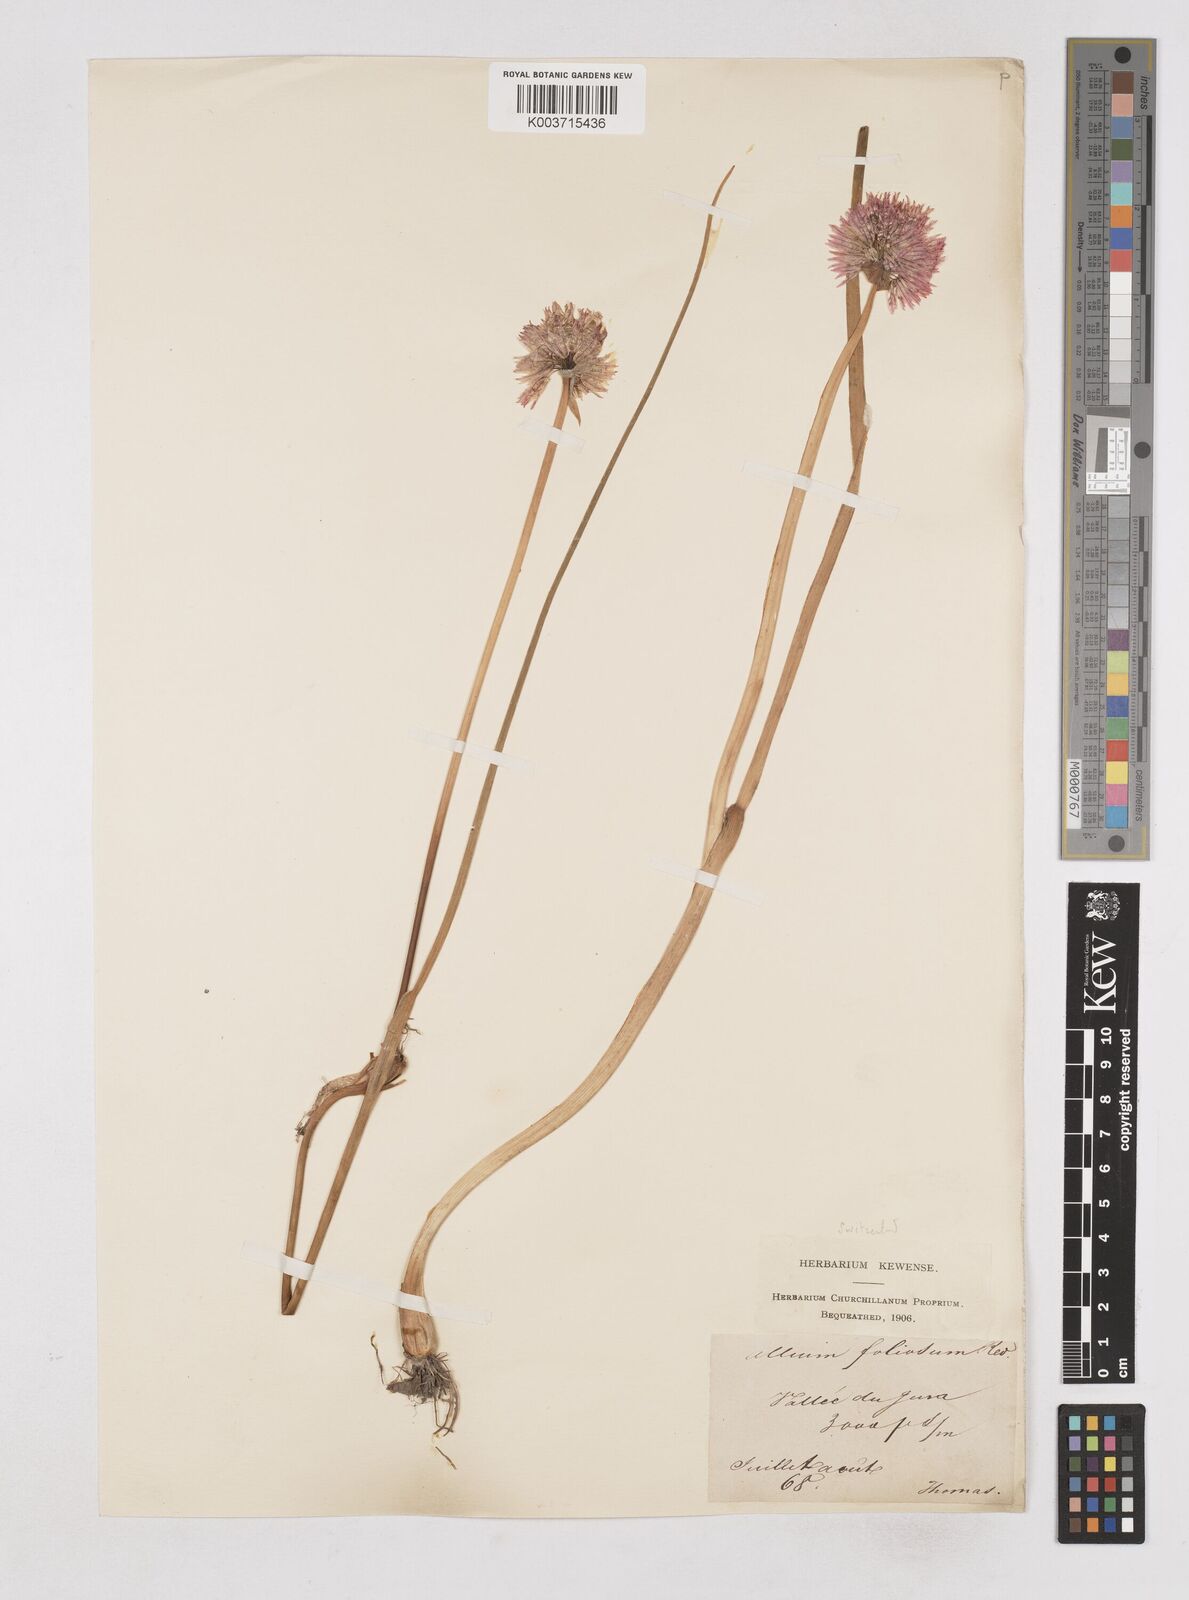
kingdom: Plantae
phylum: Tracheophyta
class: Liliopsida
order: Asparagales
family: Amaryllidaceae
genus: Allium
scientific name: Allium schoenoprasum
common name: Chives
